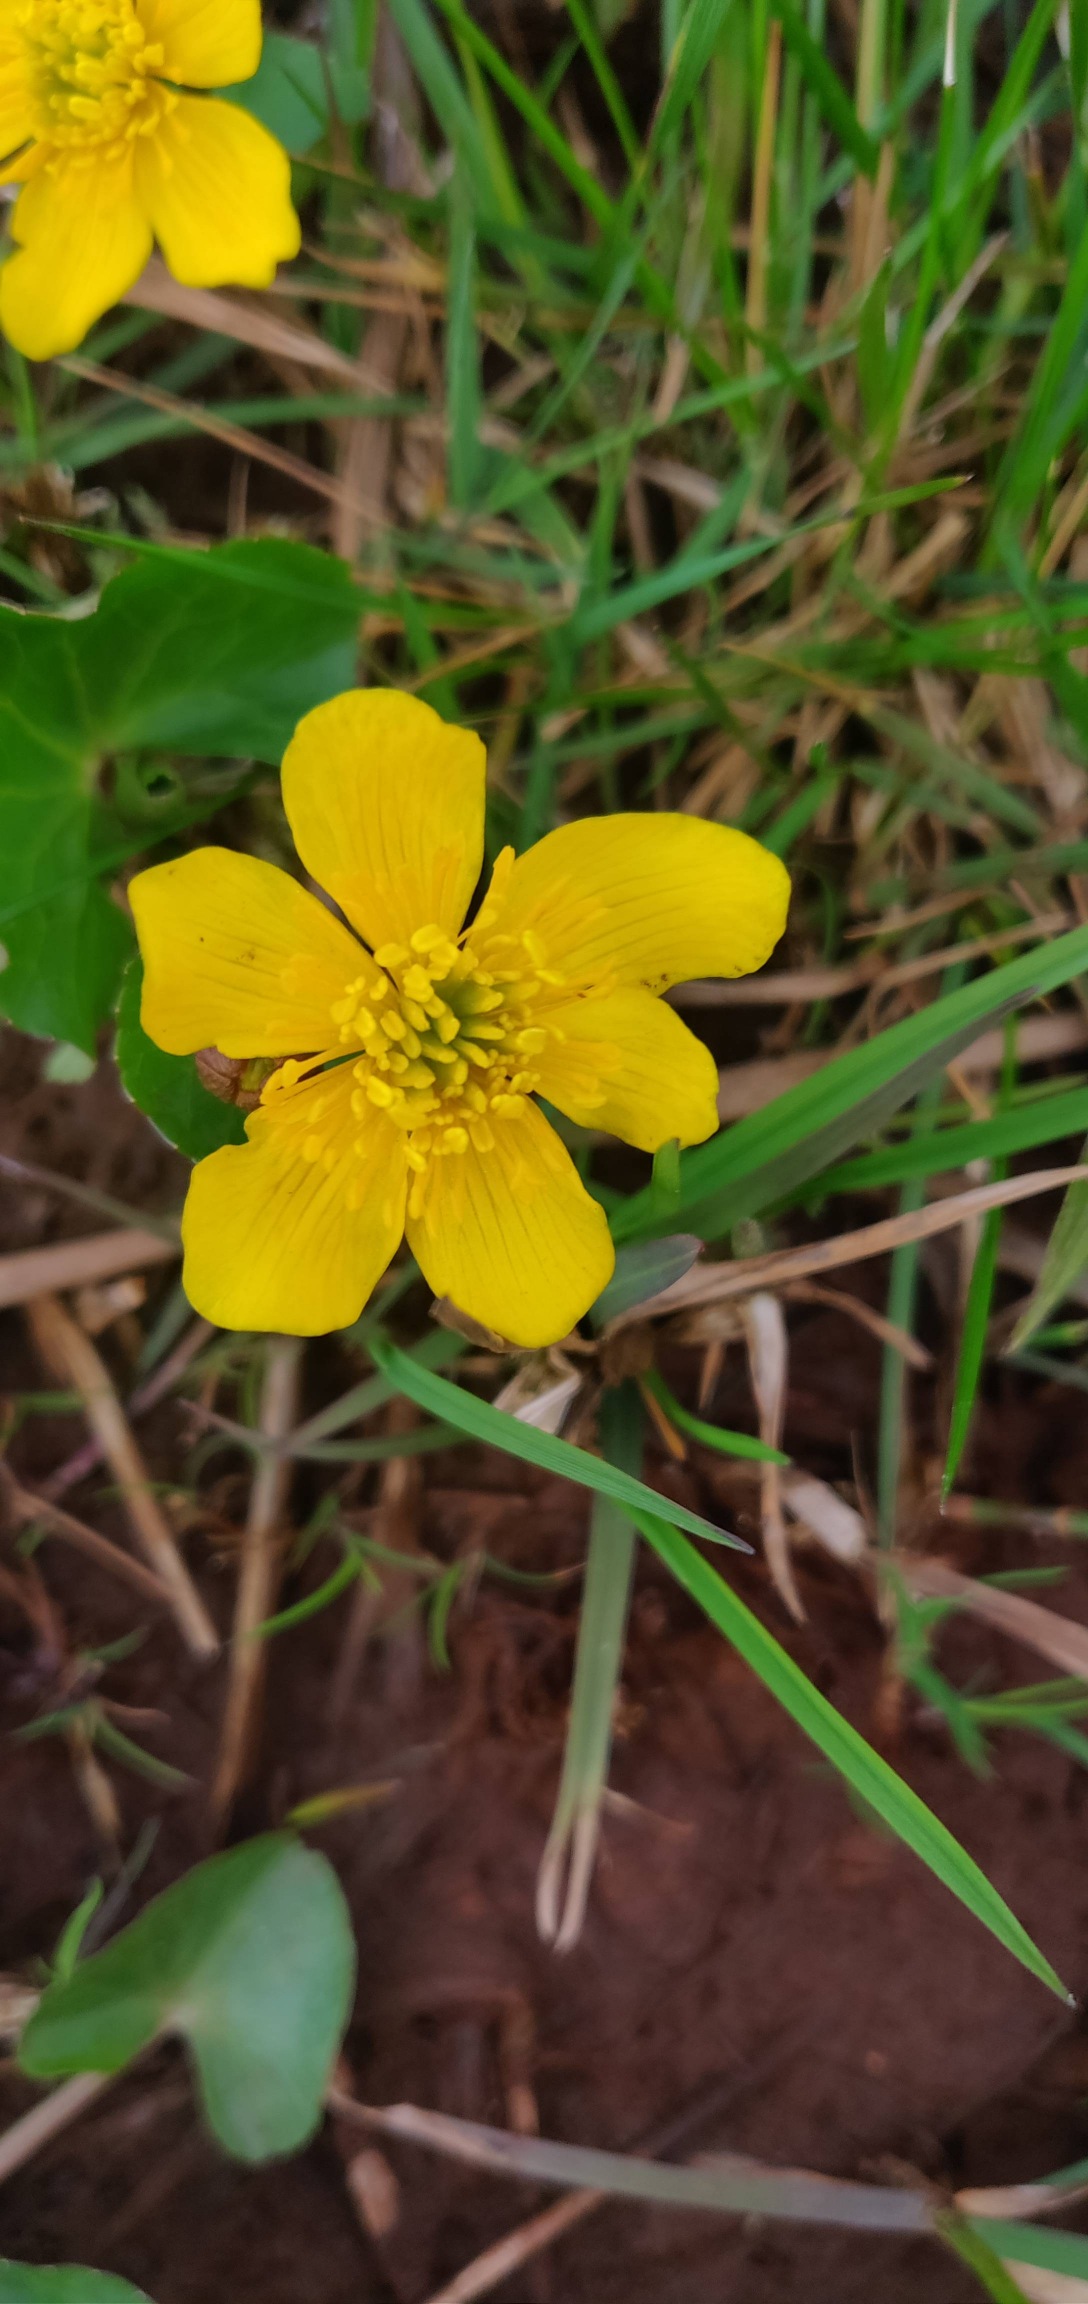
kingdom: Plantae
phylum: Tracheophyta
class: Magnoliopsida
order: Ranunculales
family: Ranunculaceae
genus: Caltha
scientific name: Caltha palustris
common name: Eng-kabbeleje
